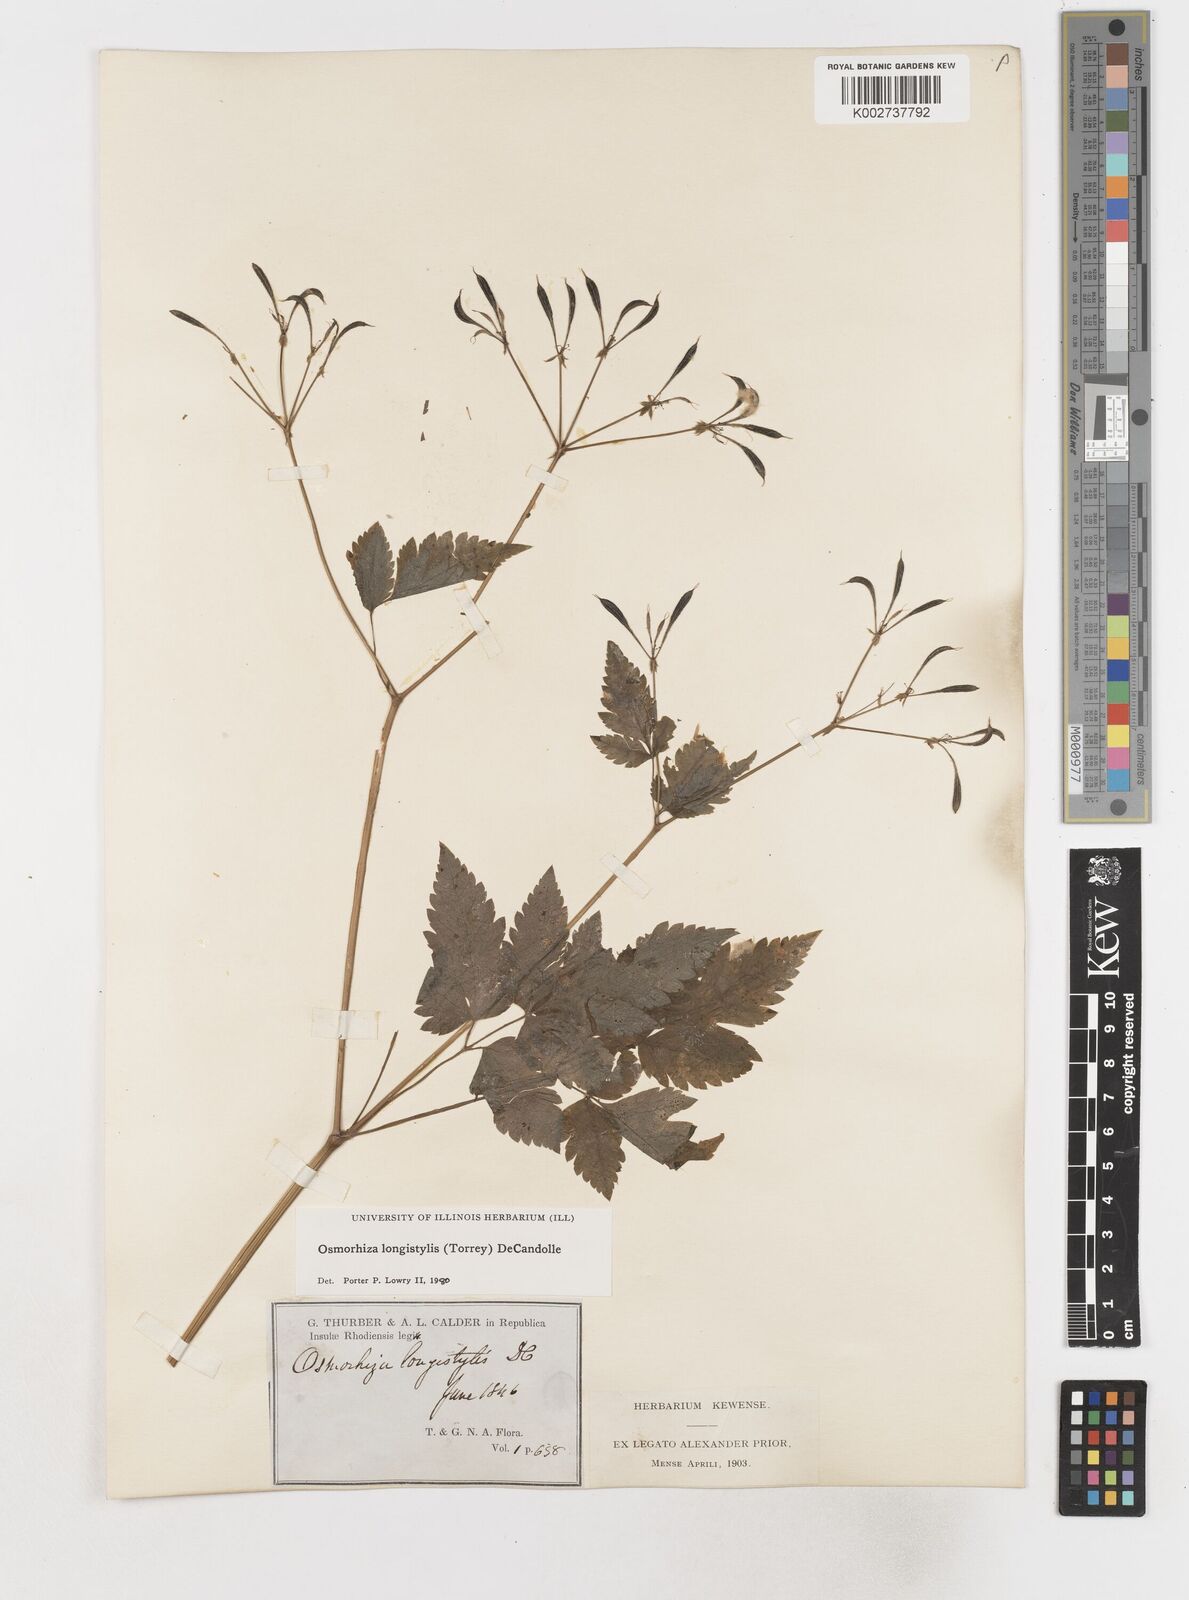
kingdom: Plantae
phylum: Tracheophyta
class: Magnoliopsida
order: Apiales
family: Apiaceae
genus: Osmorhiza
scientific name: Osmorhiza longistylis
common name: Smooth sweet cicely
